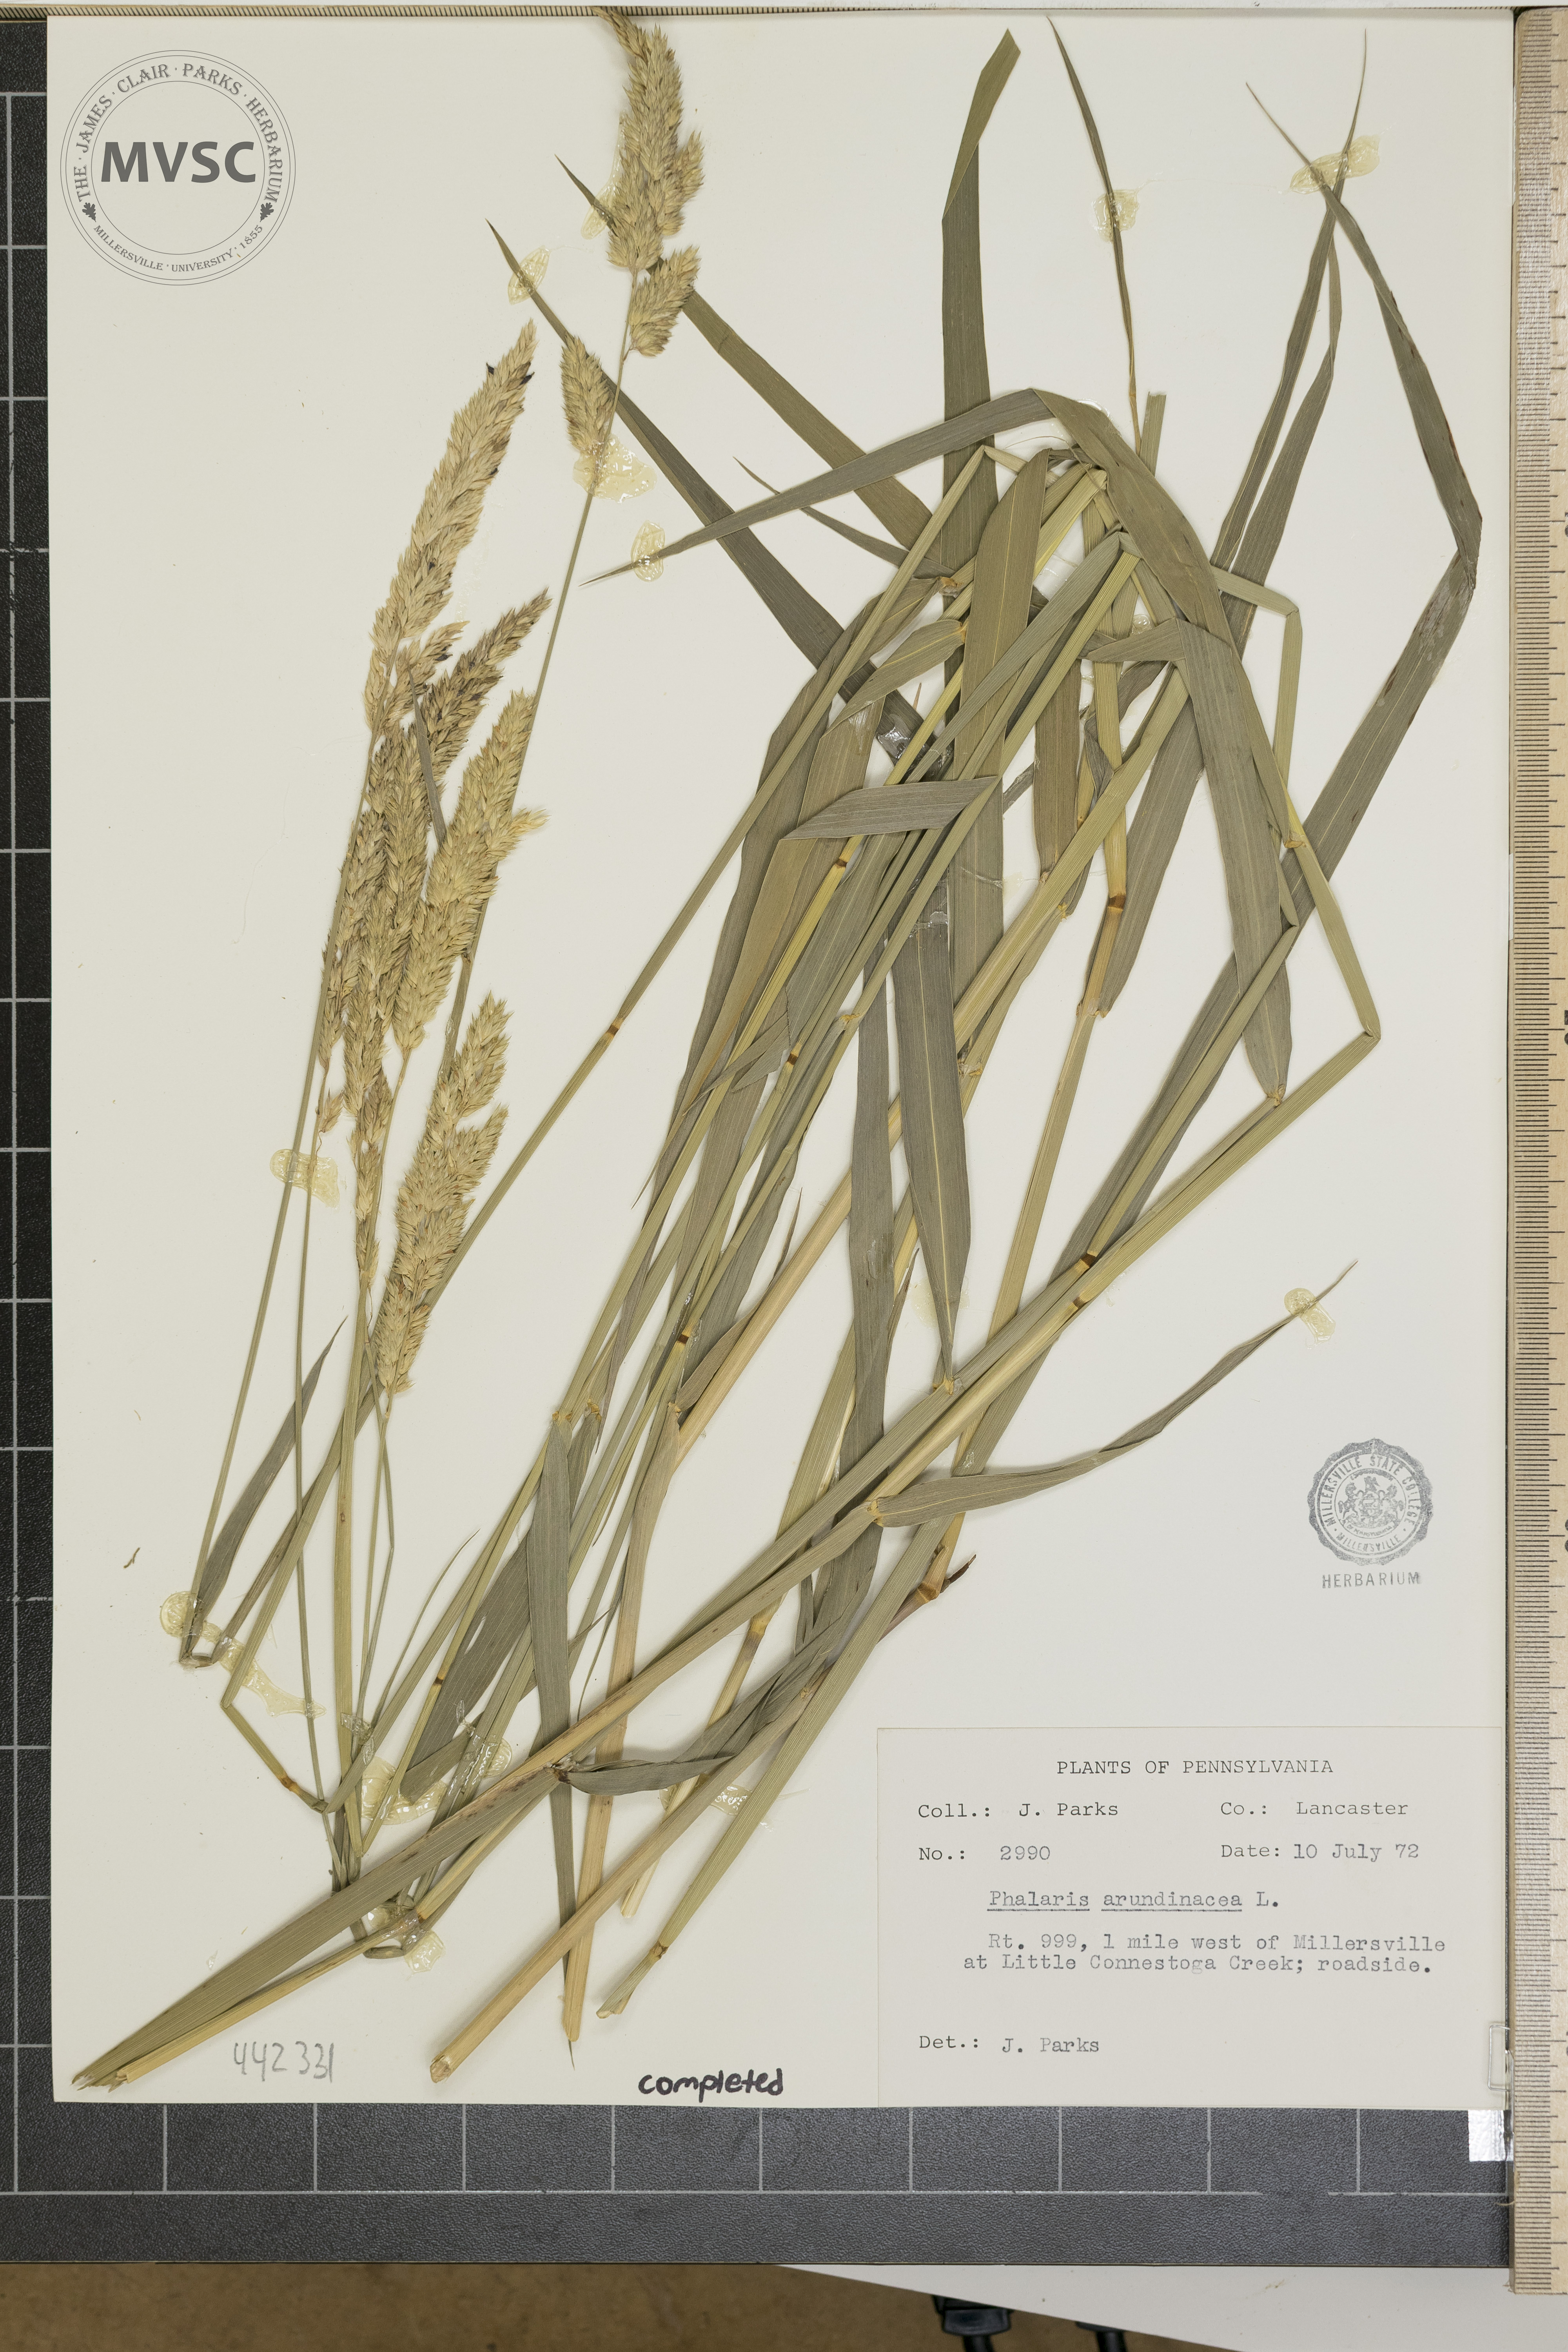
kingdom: Plantae
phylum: Tracheophyta
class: Liliopsida
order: Poales
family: Poaceae
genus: Phalaris
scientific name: Phalaris arundinacea
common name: Reed canary-grass
